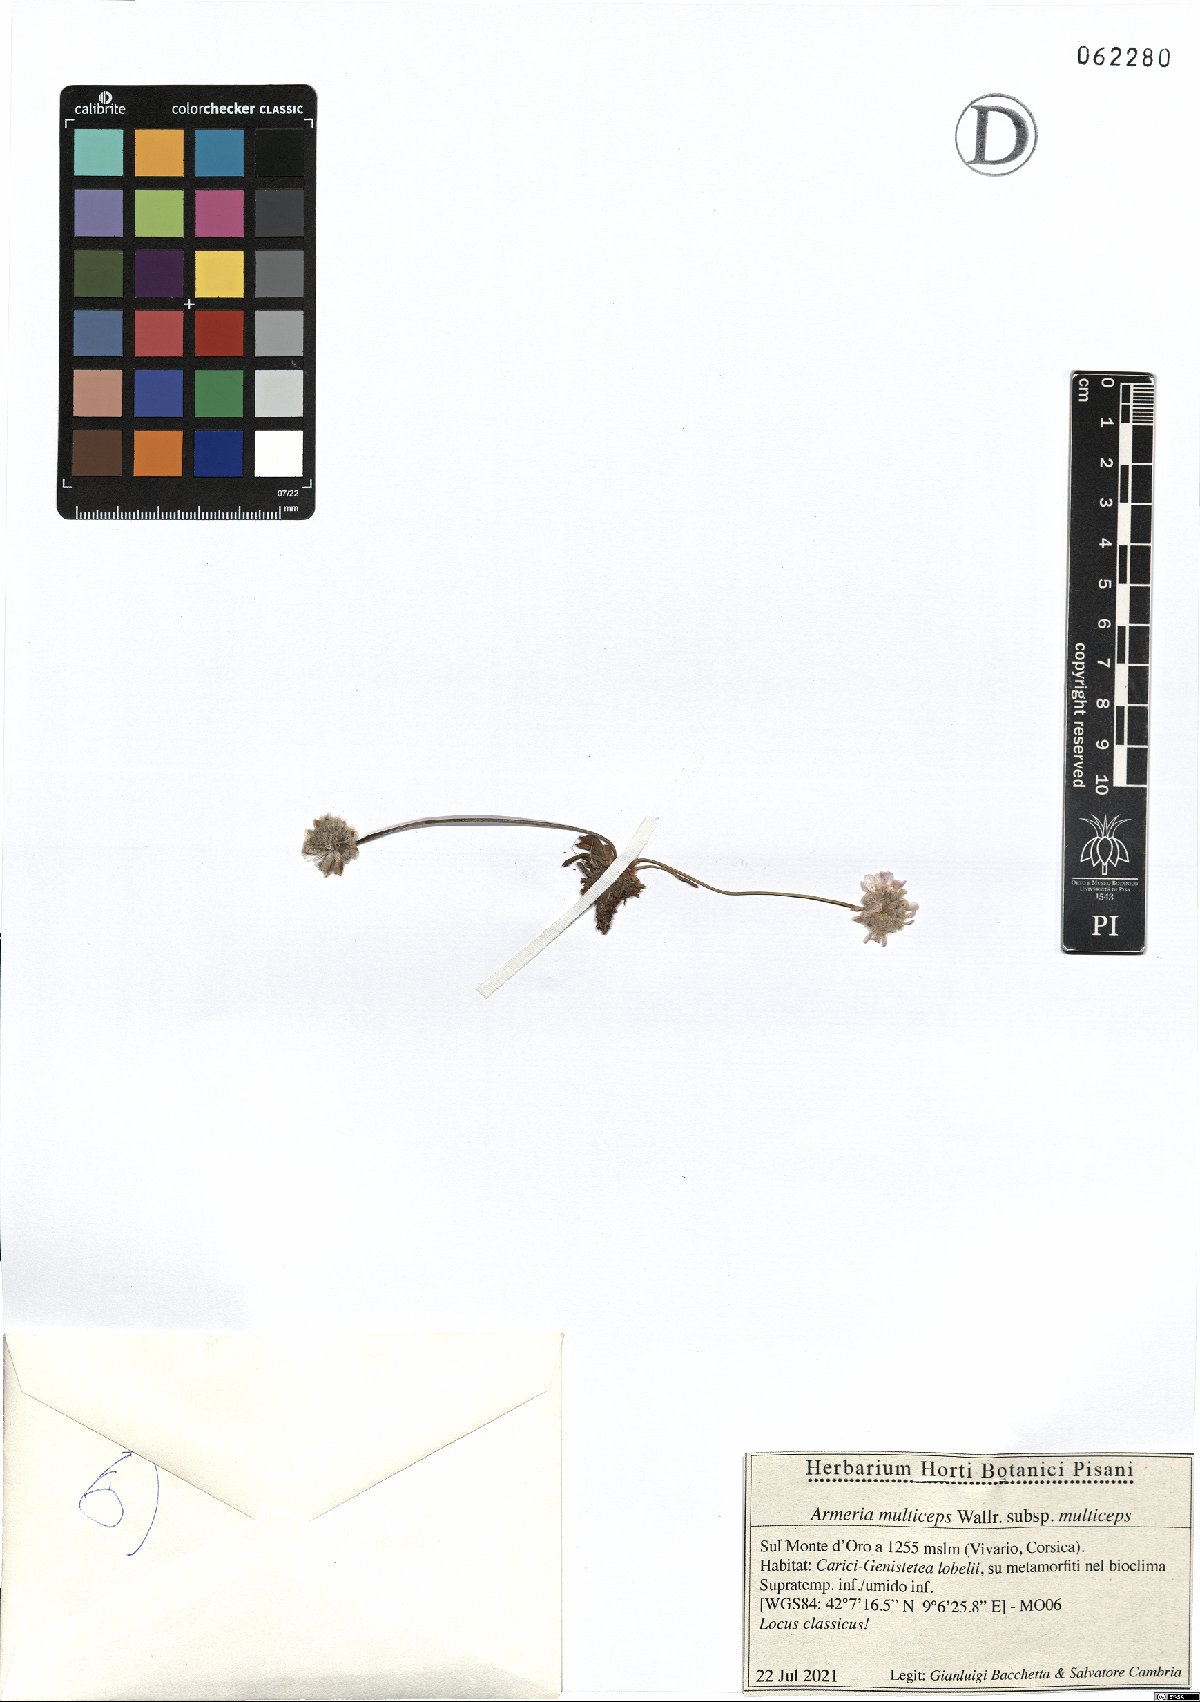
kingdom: Plantae
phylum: Tracheophyta
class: Magnoliopsida
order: Caryophyllales
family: Plumbaginaceae
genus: Armeria
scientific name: Armeria multiceps
